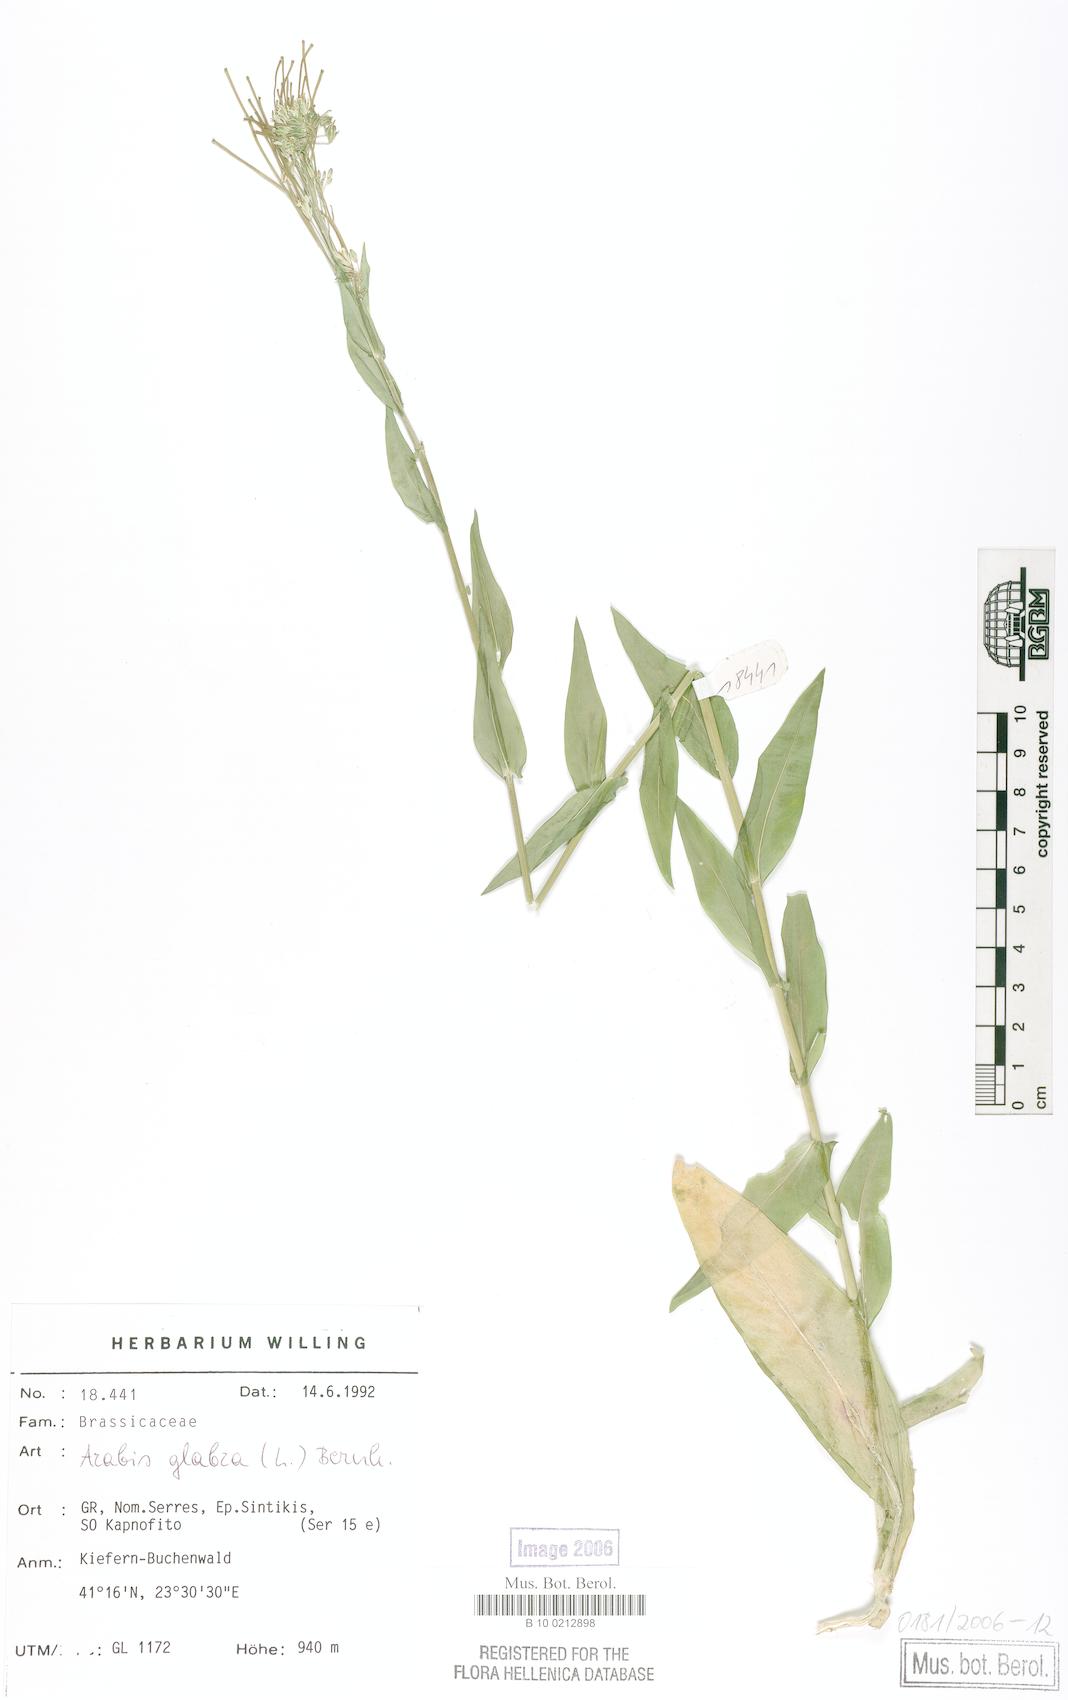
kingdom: Plantae
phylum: Tracheophyta
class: Magnoliopsida
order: Brassicales
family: Brassicaceae
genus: Turritis
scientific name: Turritis glabra
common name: Tower rockcress
